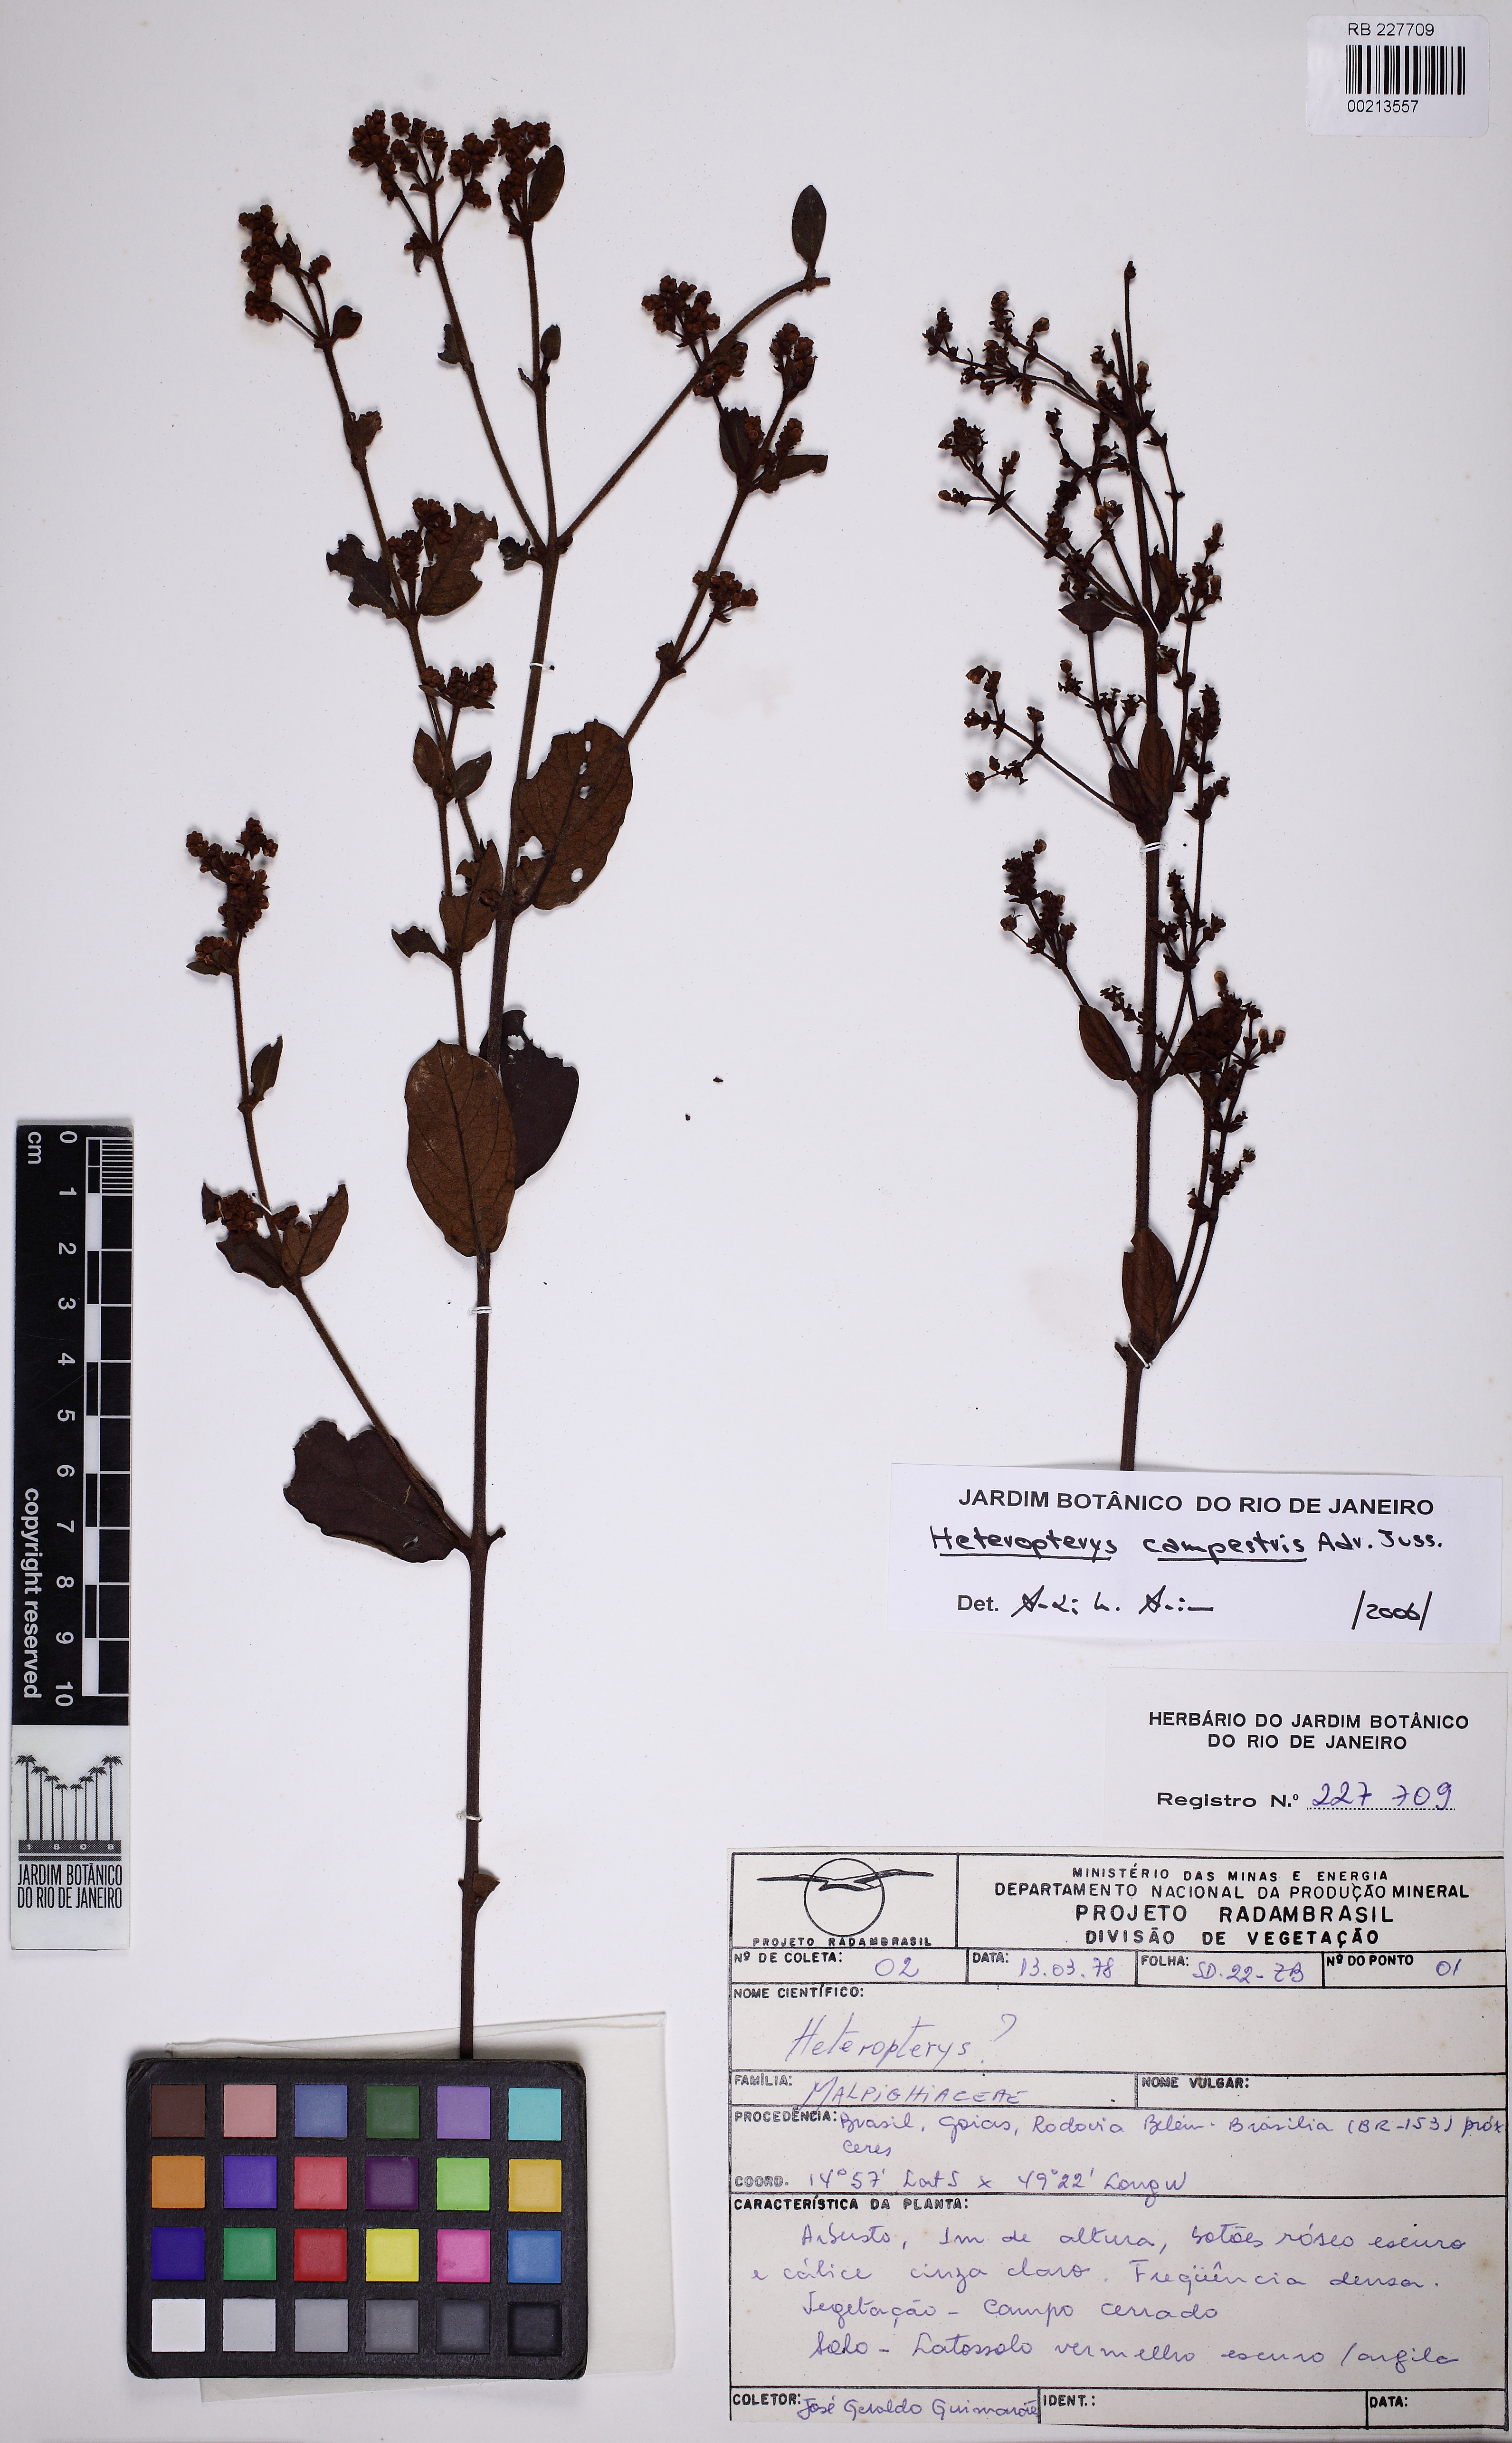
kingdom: Plantae
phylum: Tracheophyta
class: Magnoliopsida
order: Malpighiales
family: Malpighiaceae
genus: Heteropterys
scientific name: Heteropterys campestris
